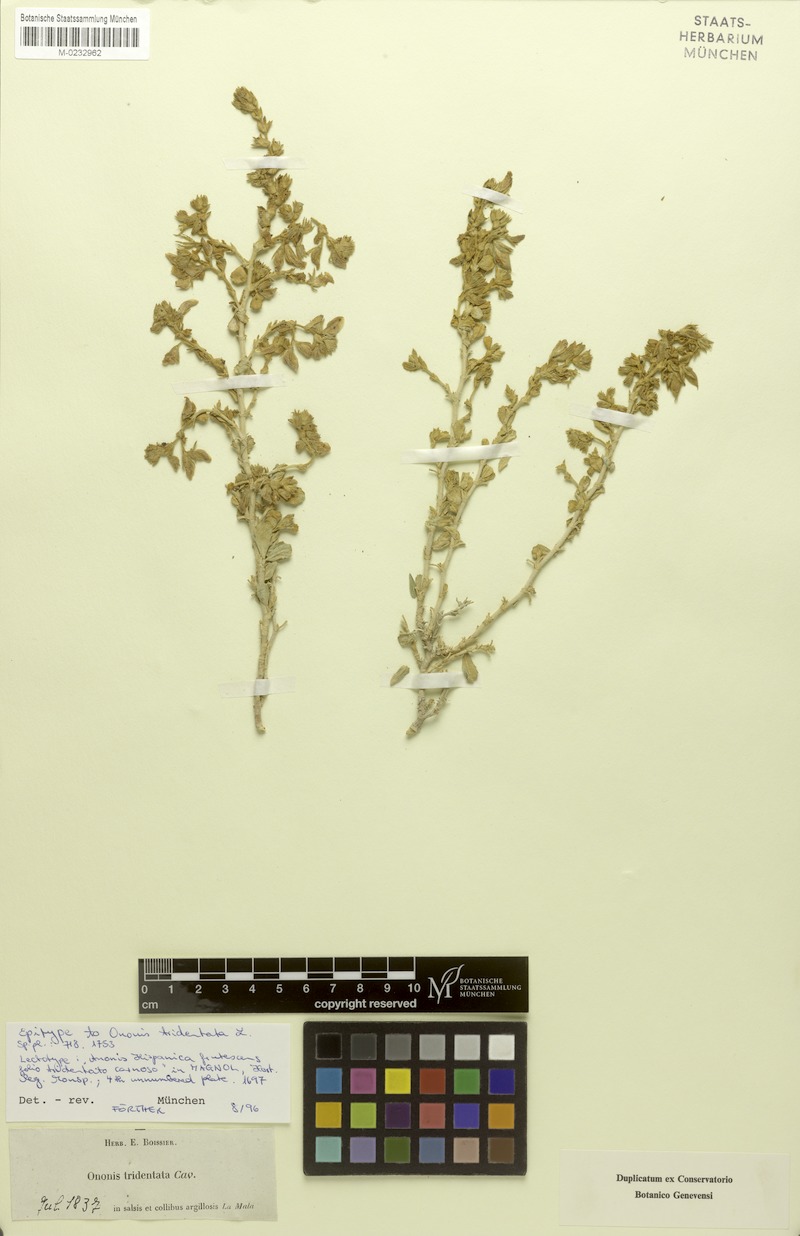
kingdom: Plantae
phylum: Tracheophyta
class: Magnoliopsida
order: Fabales
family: Fabaceae
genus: Ononis
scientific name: Ononis tridentata
